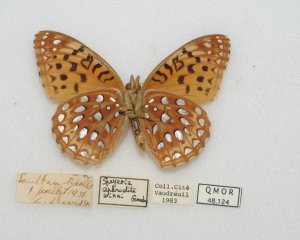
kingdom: Animalia
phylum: Arthropoda
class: Insecta
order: Lepidoptera
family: Nymphalidae
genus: Speyeria
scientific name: Speyeria aphrodite
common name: Aphrodite Fritillary
